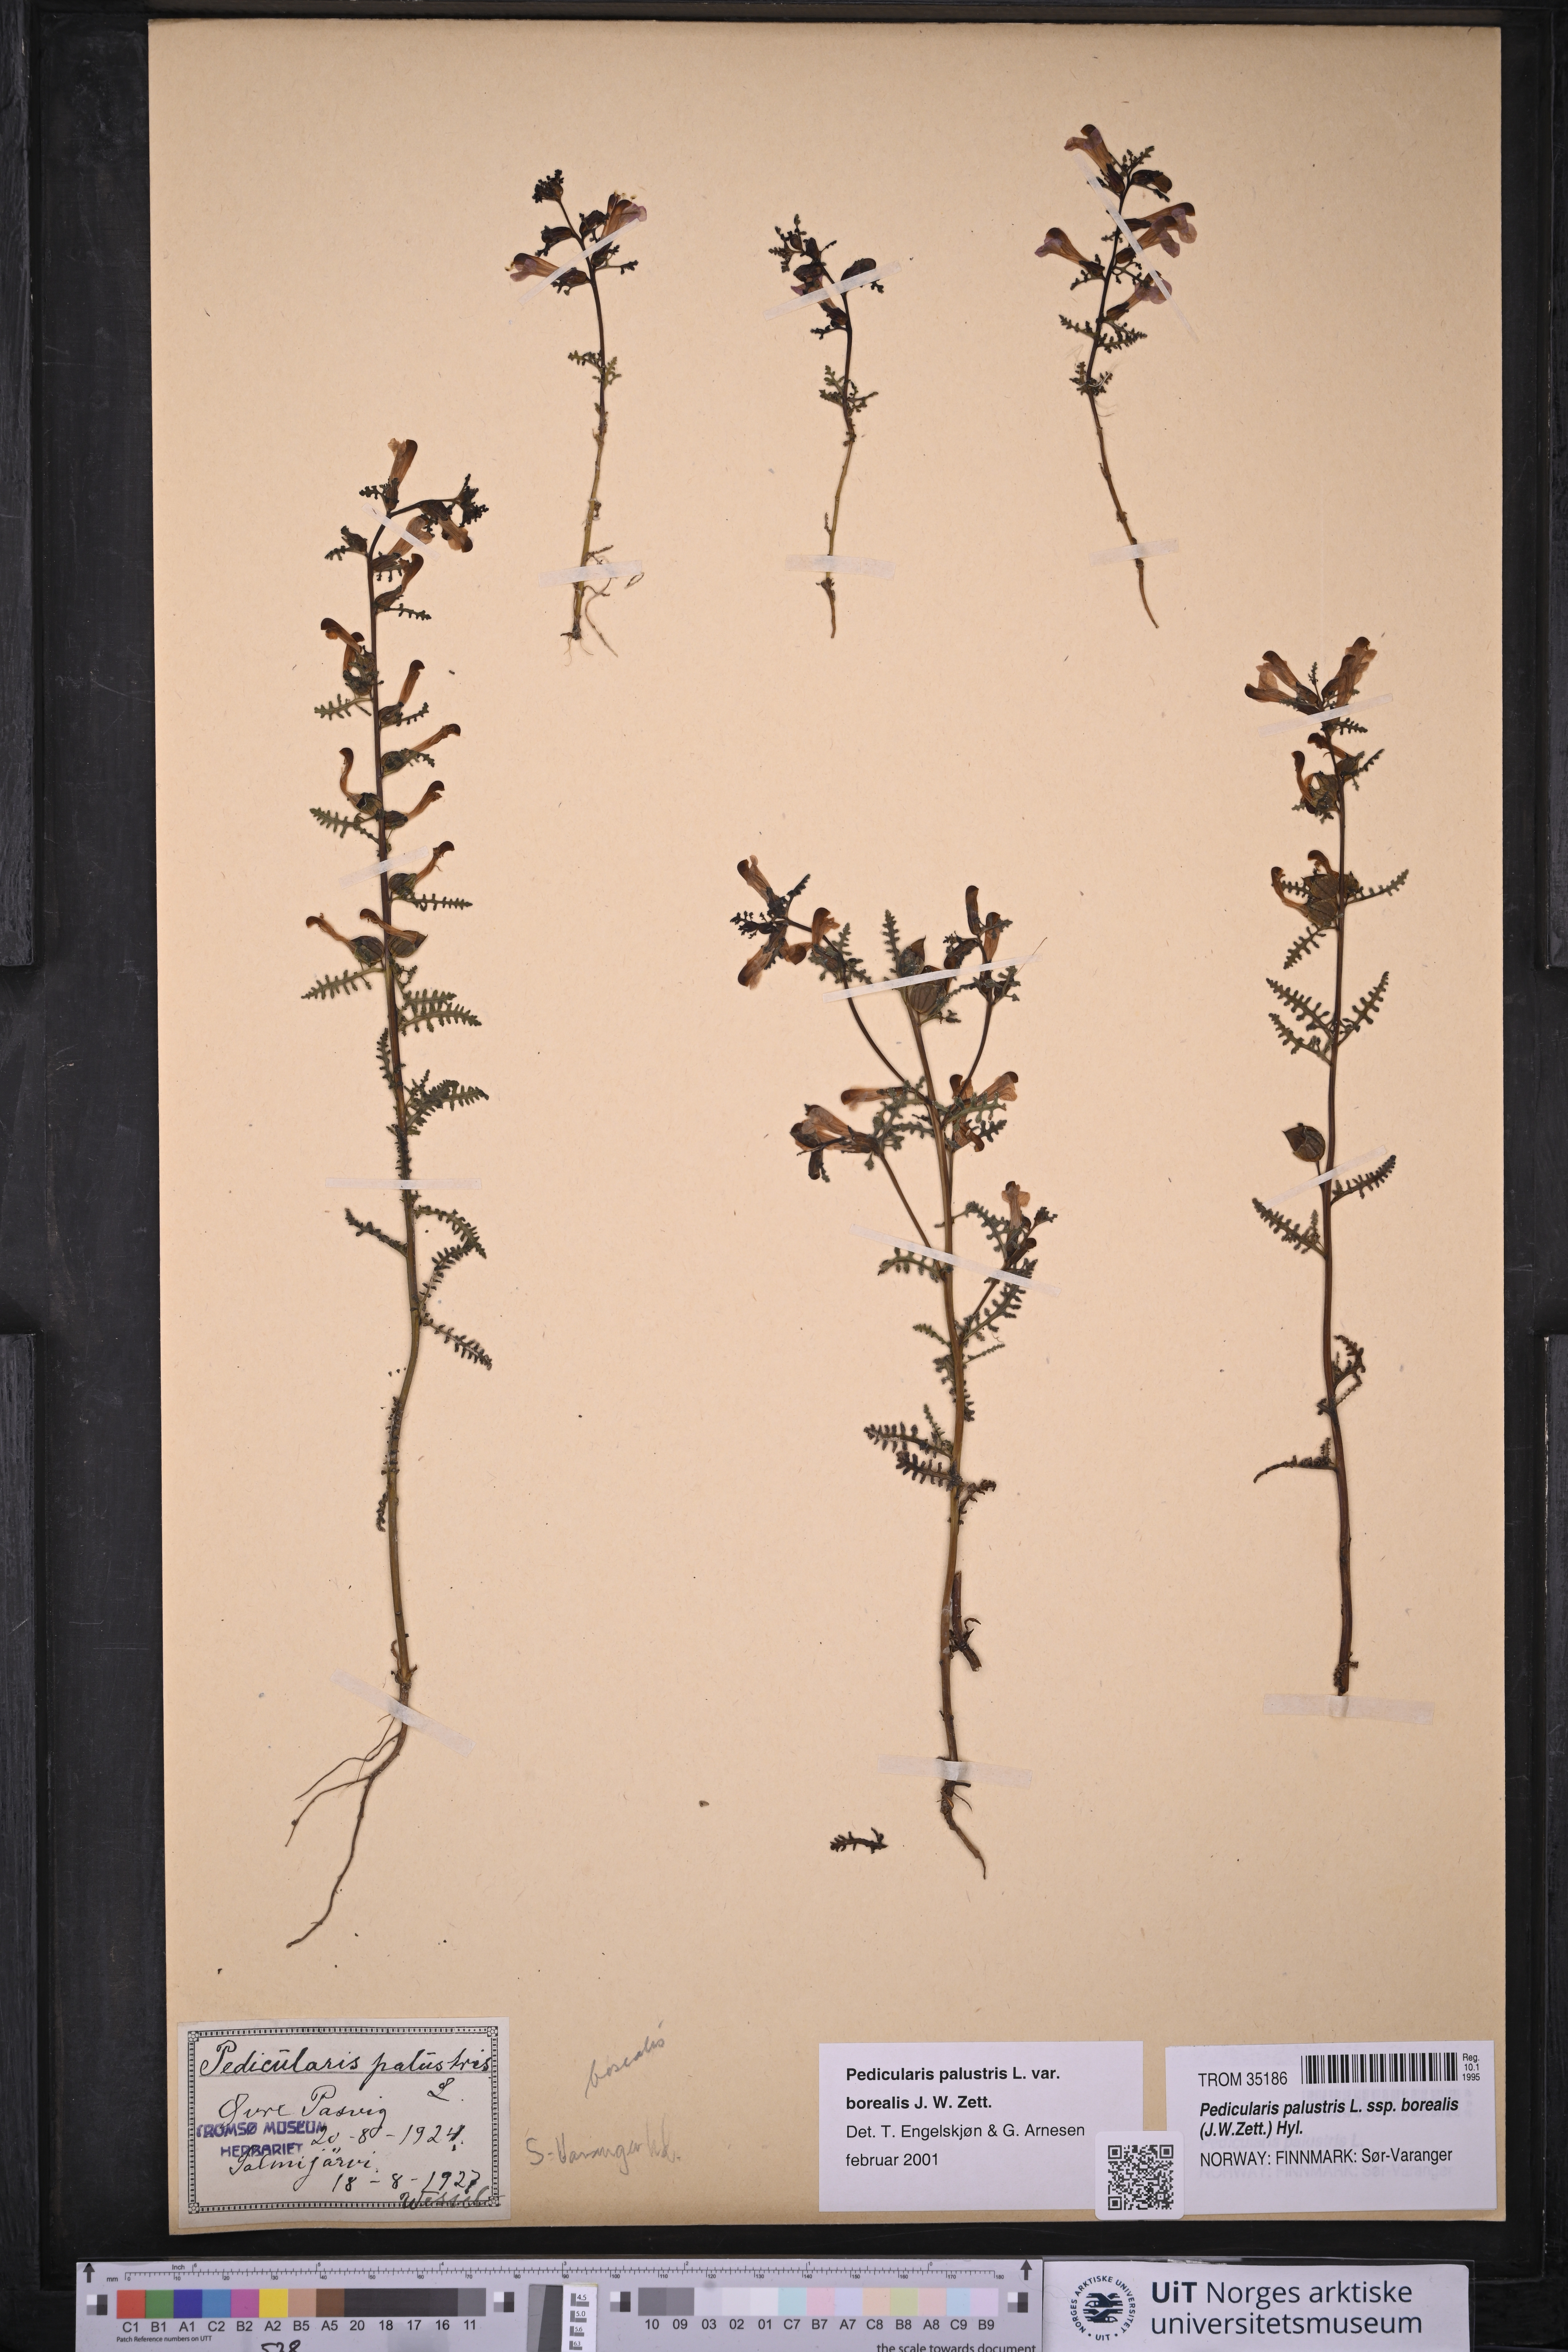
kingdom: Plantae
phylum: Tracheophyta
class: Magnoliopsida
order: Lamiales
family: Orobanchaceae
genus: Pedicularis
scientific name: Pedicularis palustris
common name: Marsh lousewort
